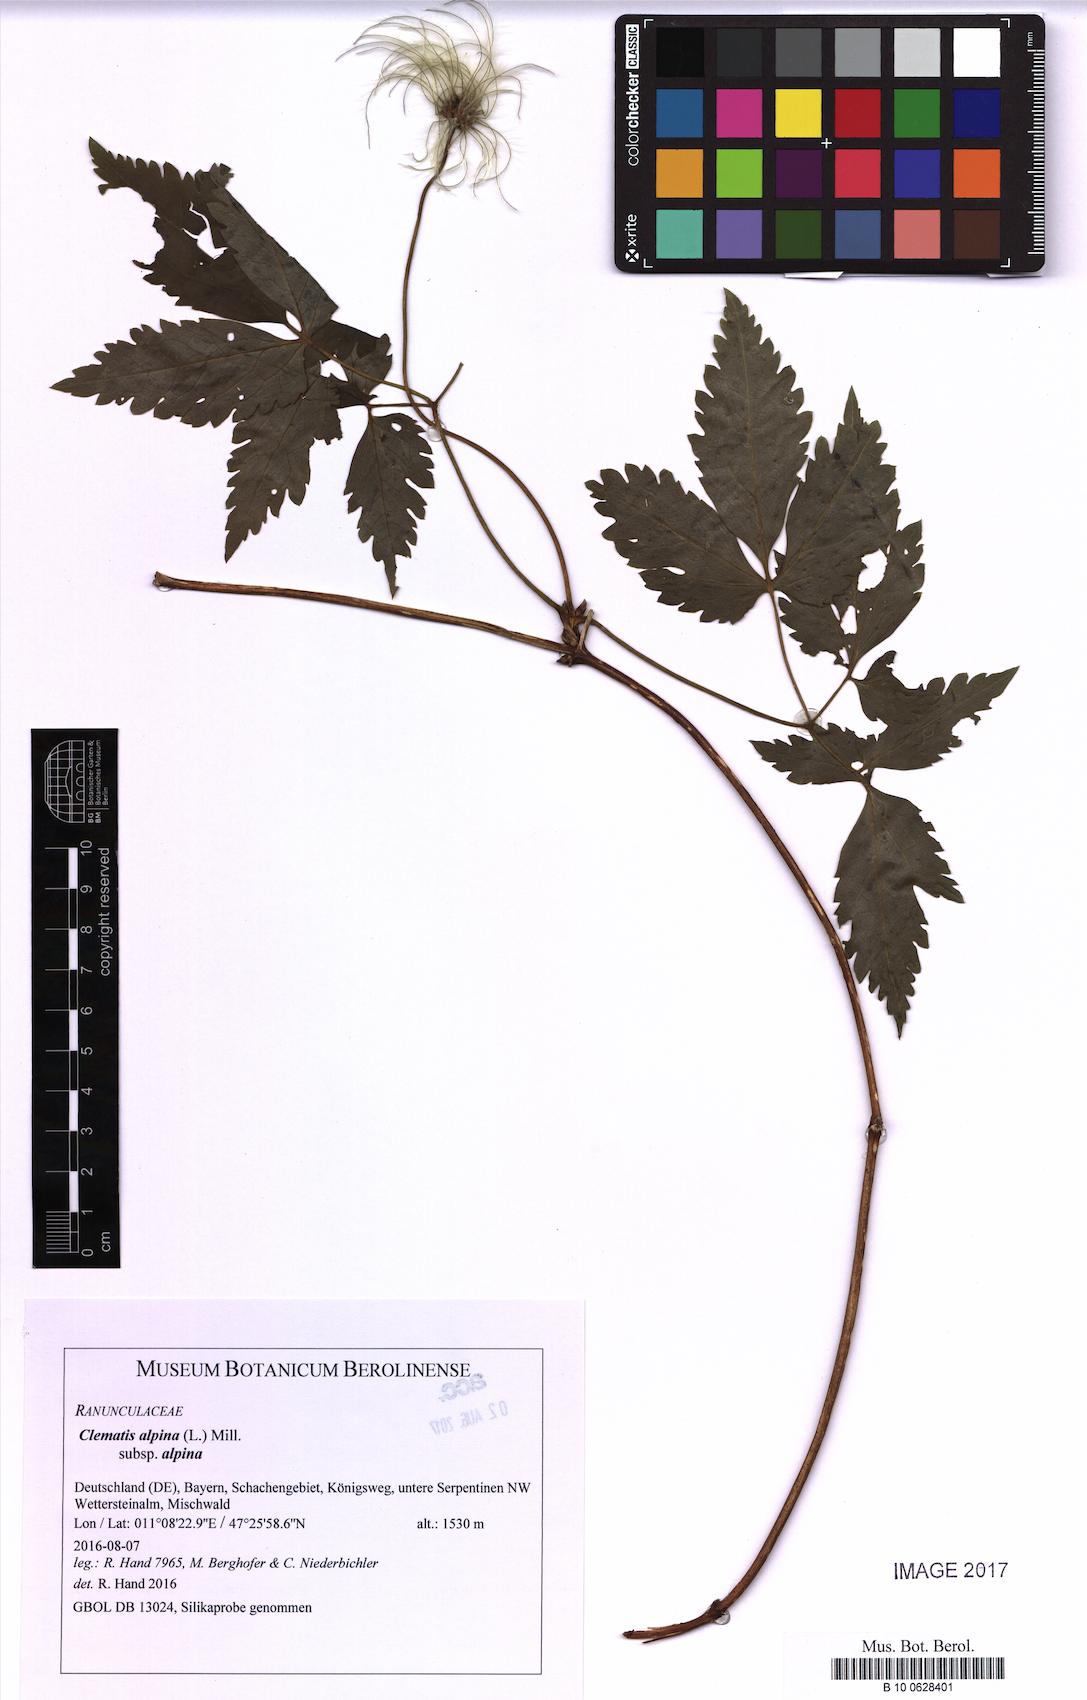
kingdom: Plantae
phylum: Tracheophyta
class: Magnoliopsida
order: Ranunculales
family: Ranunculaceae
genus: Clematis
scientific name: Clematis alpina
